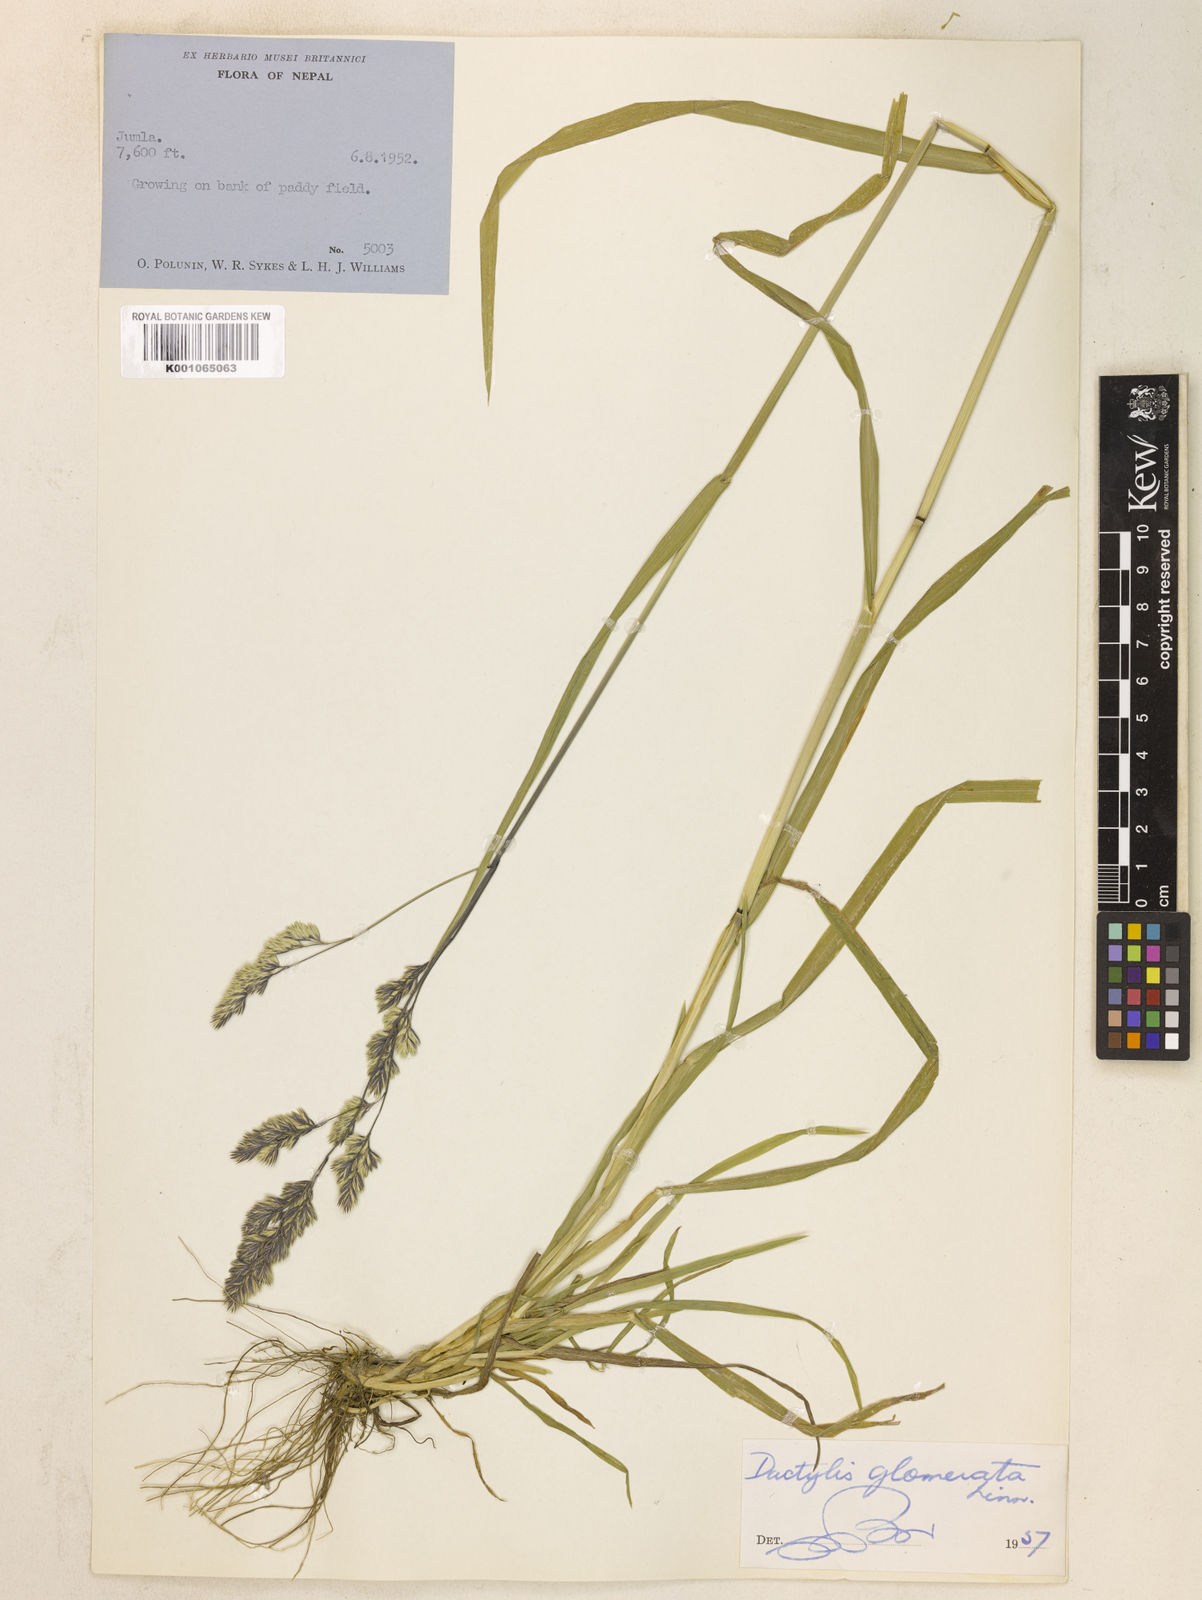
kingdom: Plantae
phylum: Tracheophyta
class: Liliopsida
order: Poales
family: Poaceae
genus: Dactylis
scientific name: Dactylis glomerata
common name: Orchardgrass
